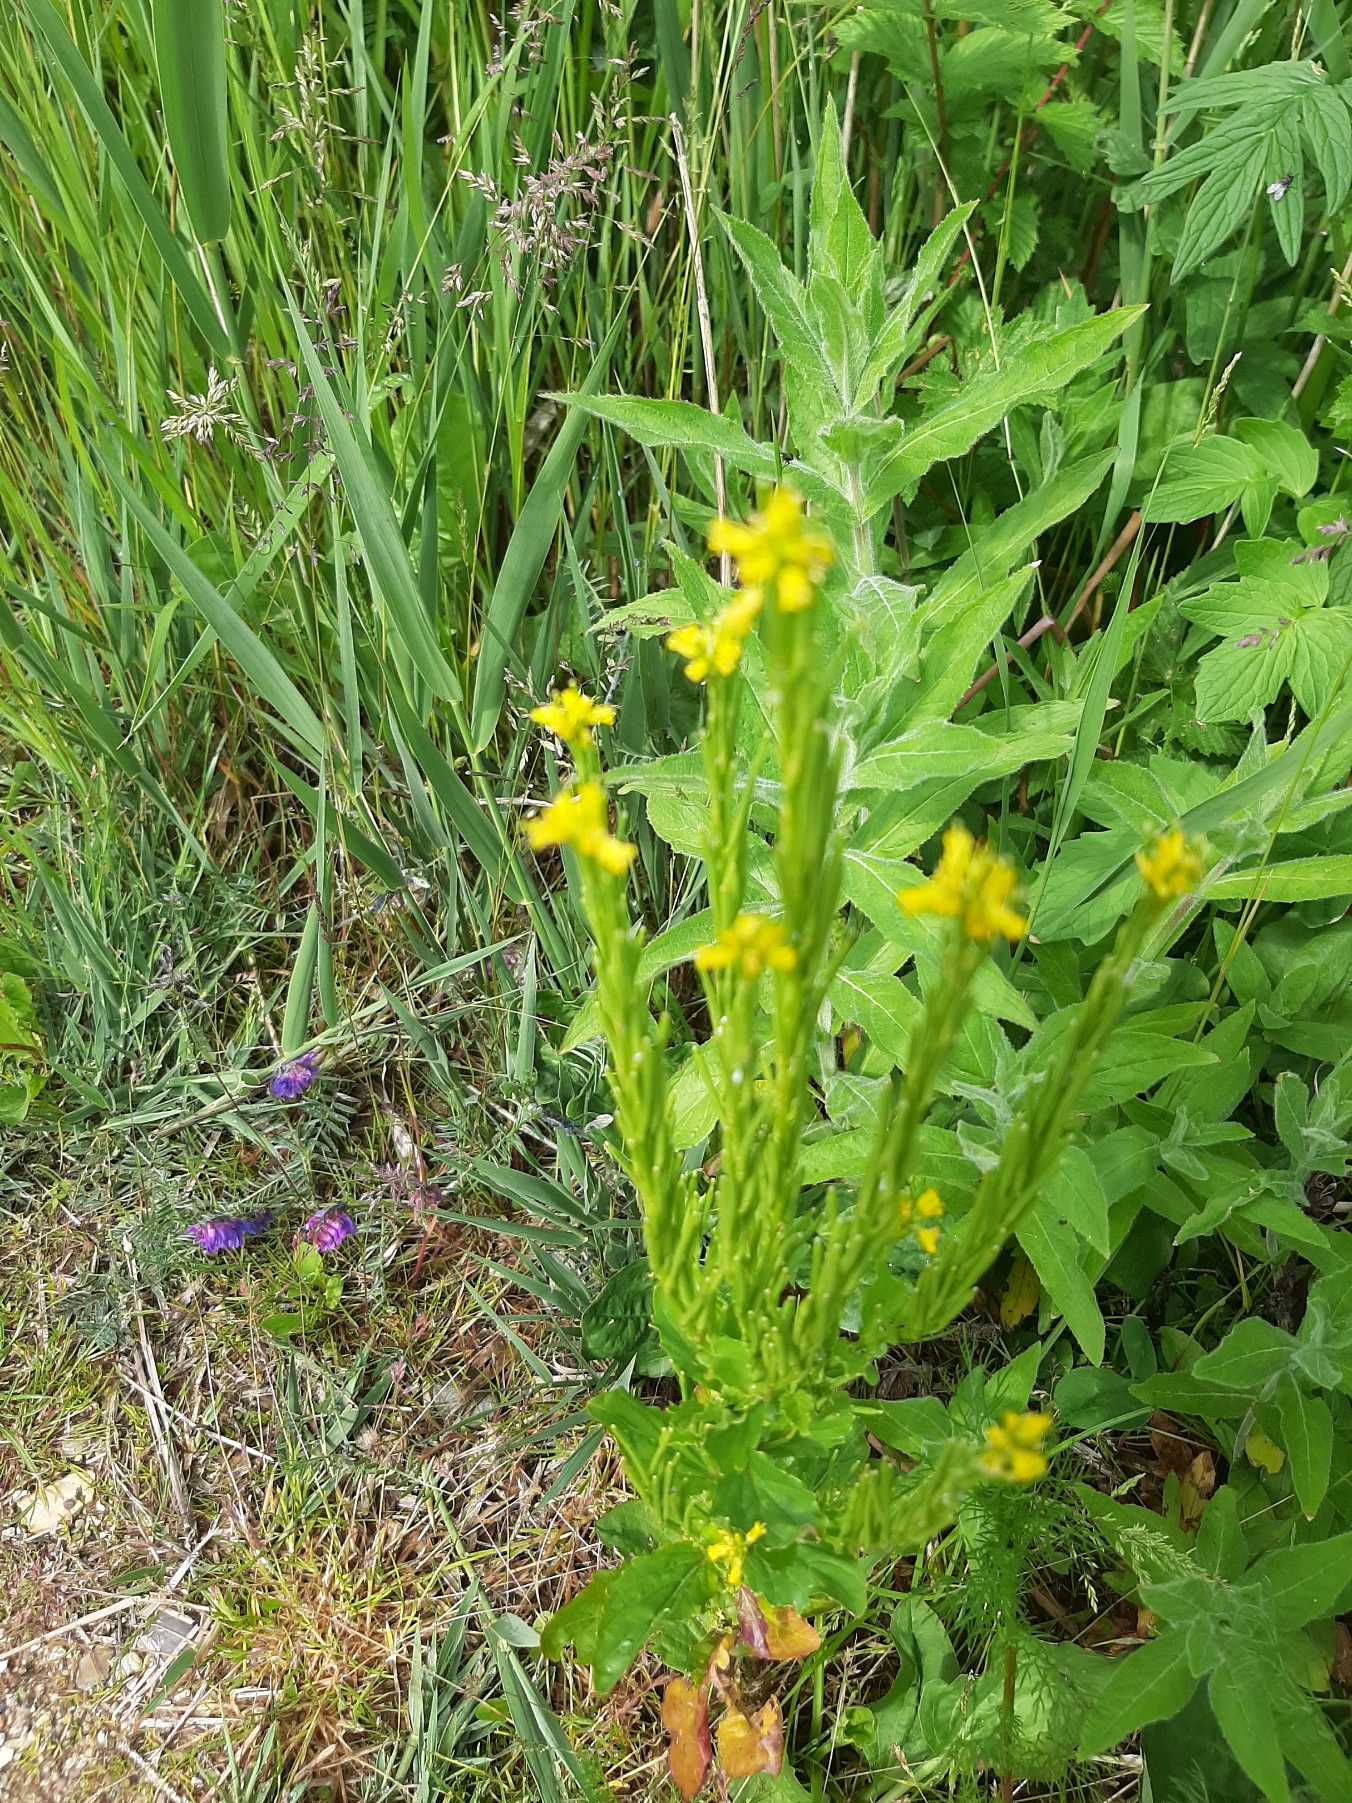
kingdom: Plantae
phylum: Tracheophyta
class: Magnoliopsida
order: Brassicales
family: Brassicaceae
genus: Barbarea
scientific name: Barbarea stricta
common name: Rank vinterkarse
